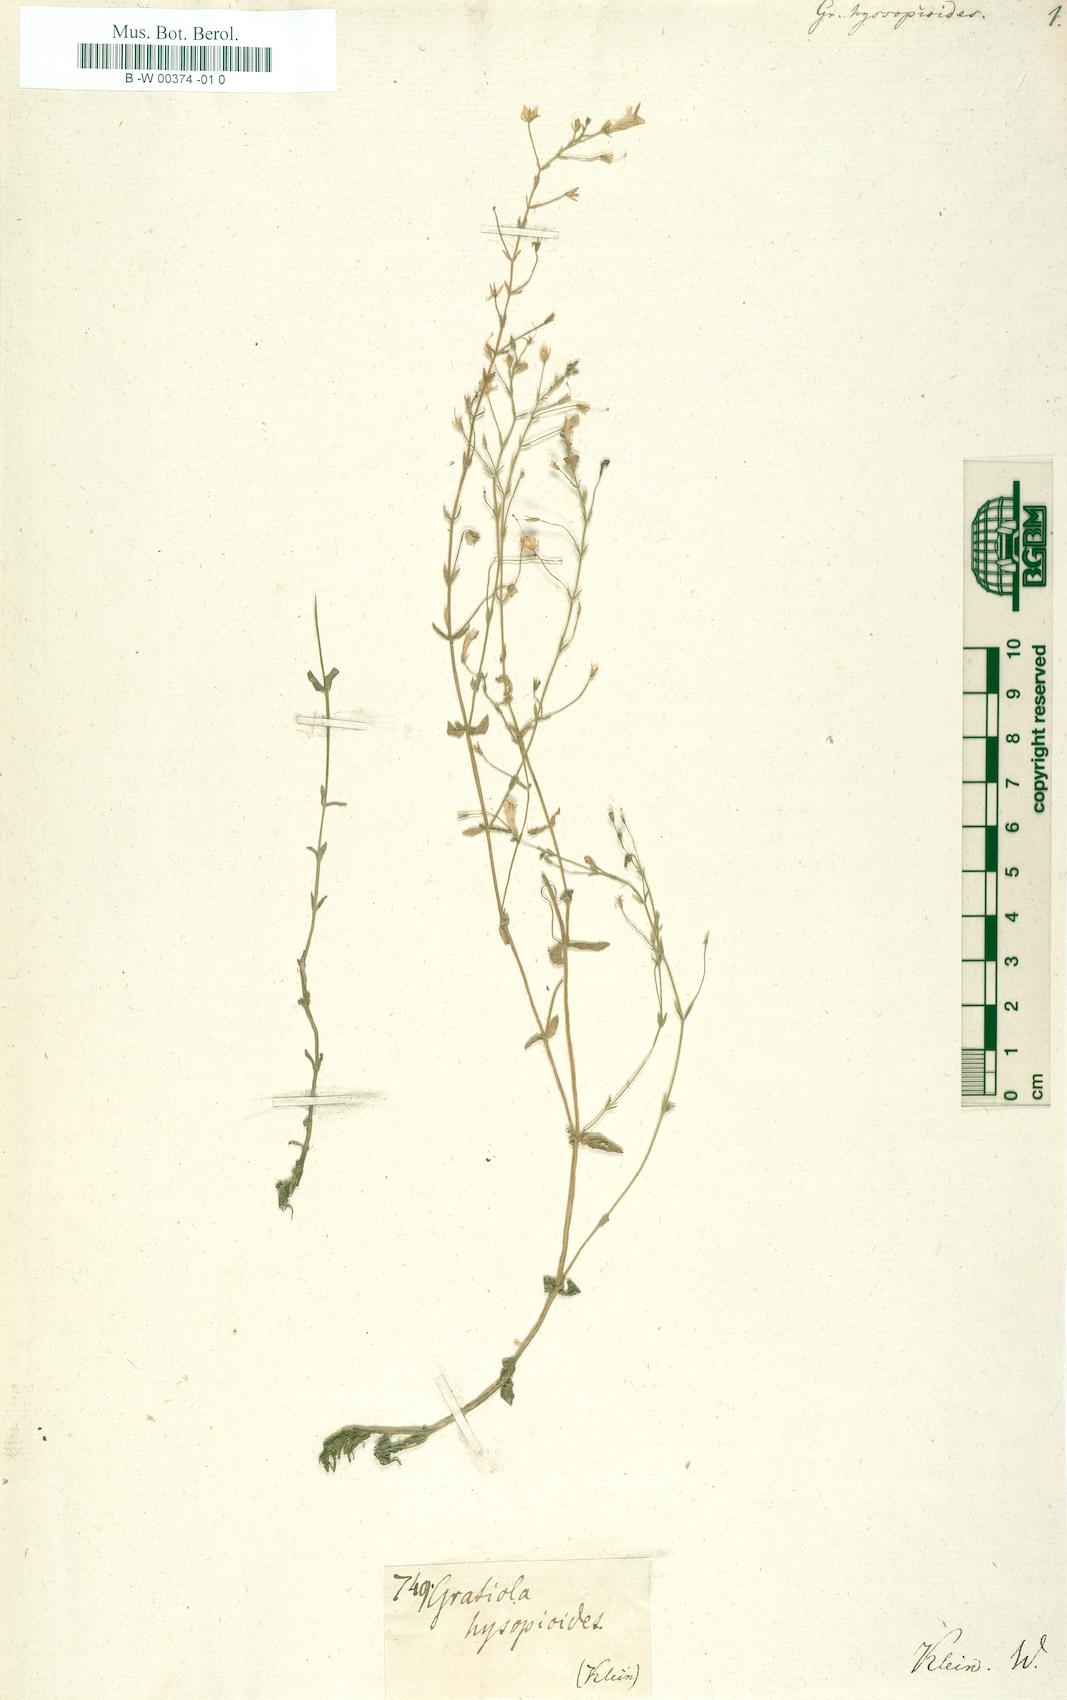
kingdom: Plantae
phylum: Tracheophyta
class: Magnoliopsida
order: Lamiales
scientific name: Lamiales
